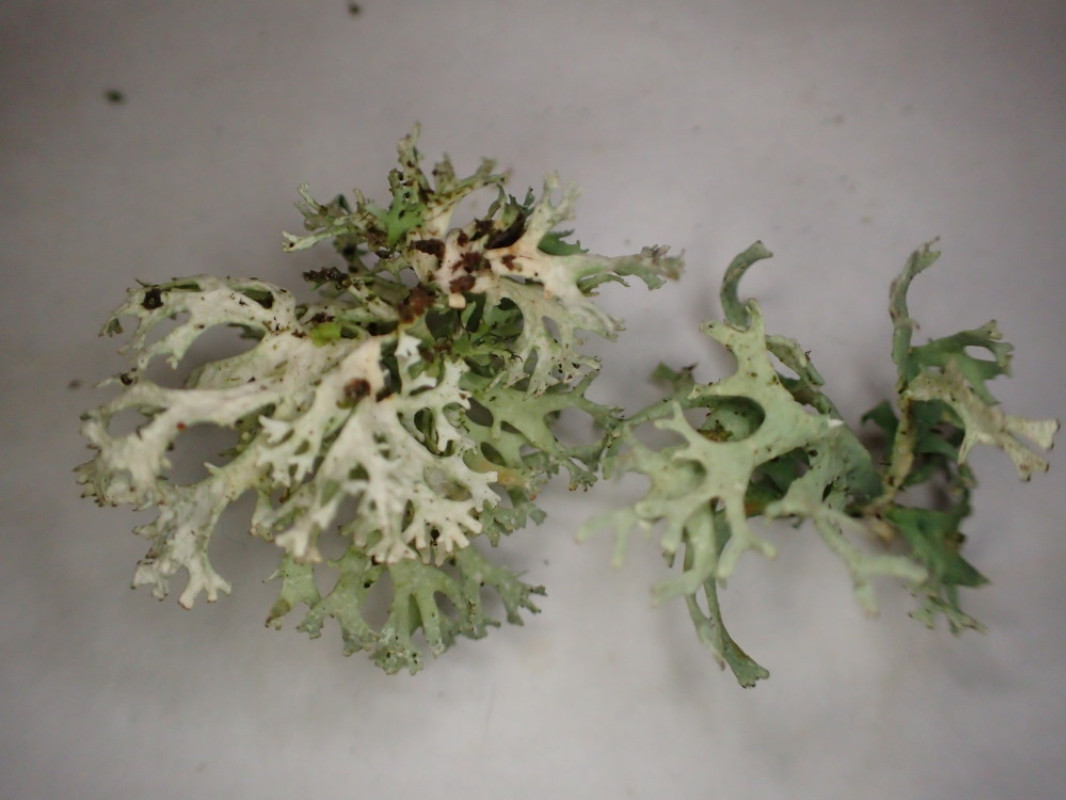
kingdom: Fungi
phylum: Ascomycota
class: Lecanoromycetes
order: Lecanorales
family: Parmeliaceae
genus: Evernia
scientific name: Evernia prunastri
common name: almindelig slåenlav
